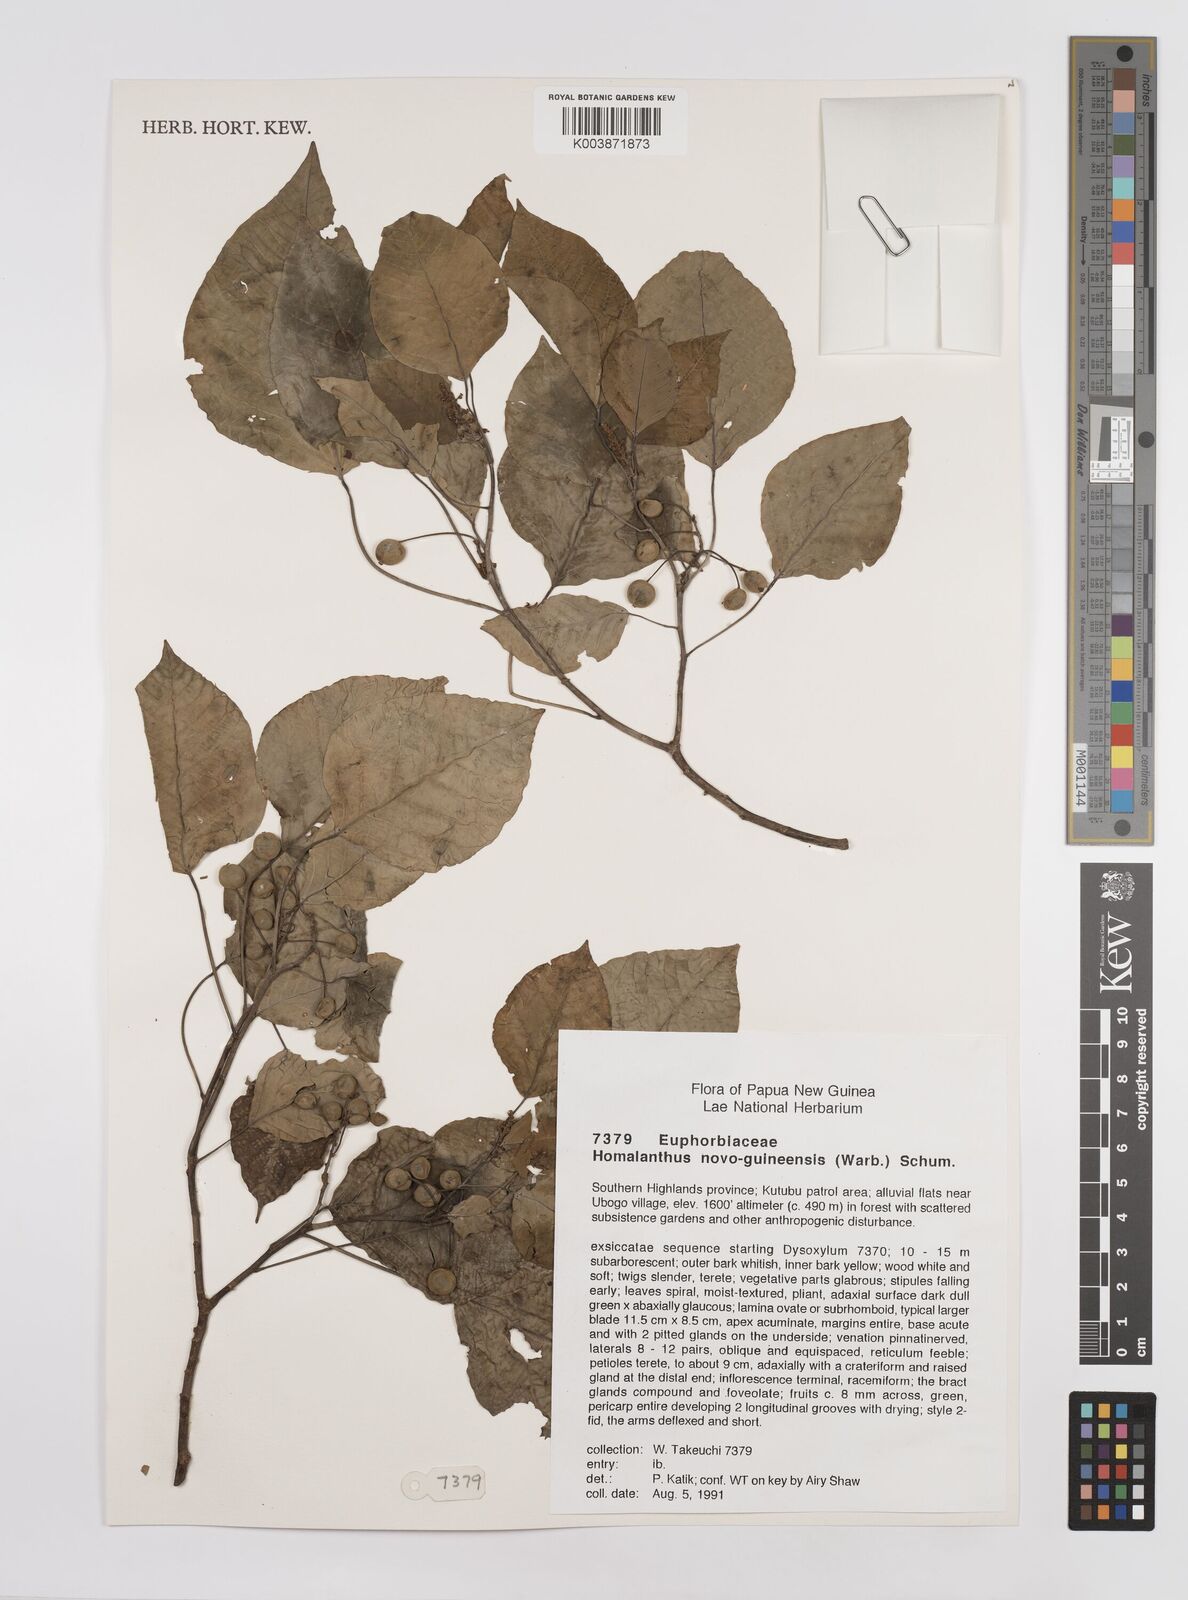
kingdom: Plantae
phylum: Tracheophyta
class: Magnoliopsida
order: Malpighiales
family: Euphorbiaceae
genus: Homalanthus
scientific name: Homalanthus novoguineensis
